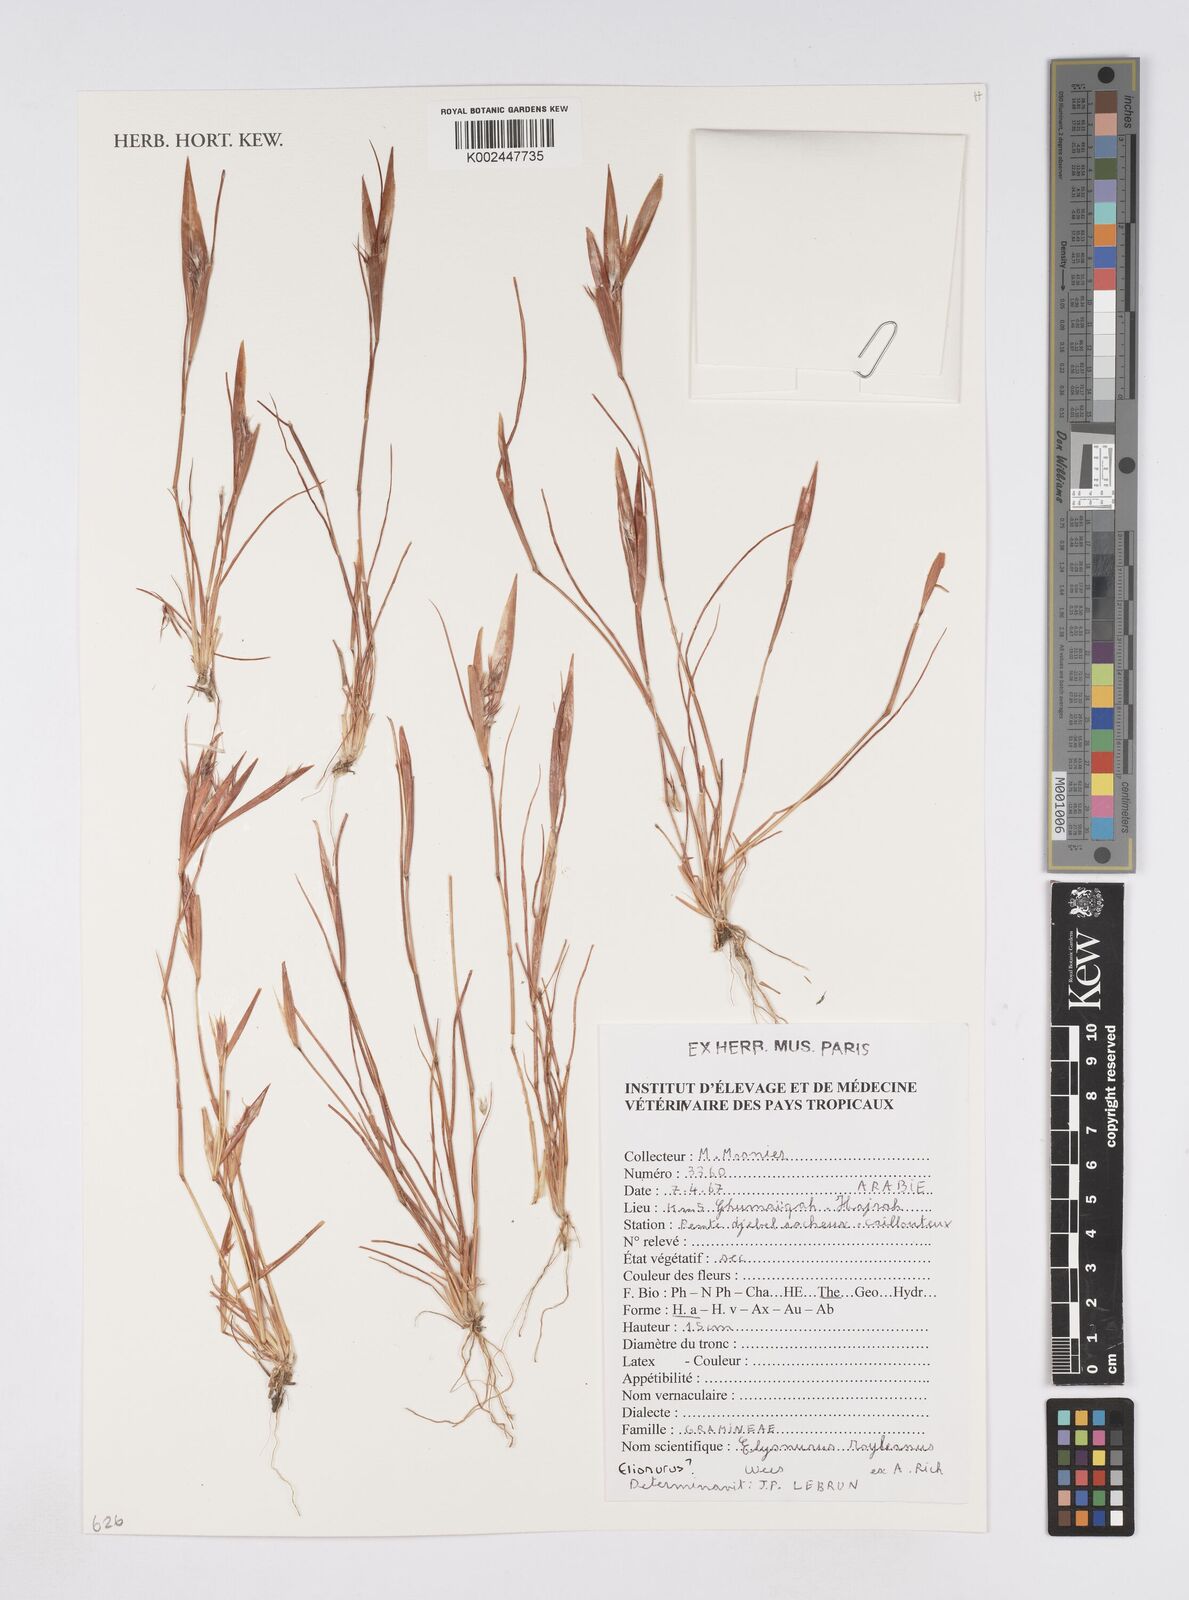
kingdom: Plantae
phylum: Tracheophyta
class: Liliopsida
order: Poales
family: Poaceae
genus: Elionurus
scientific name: Elionurus royleanus
